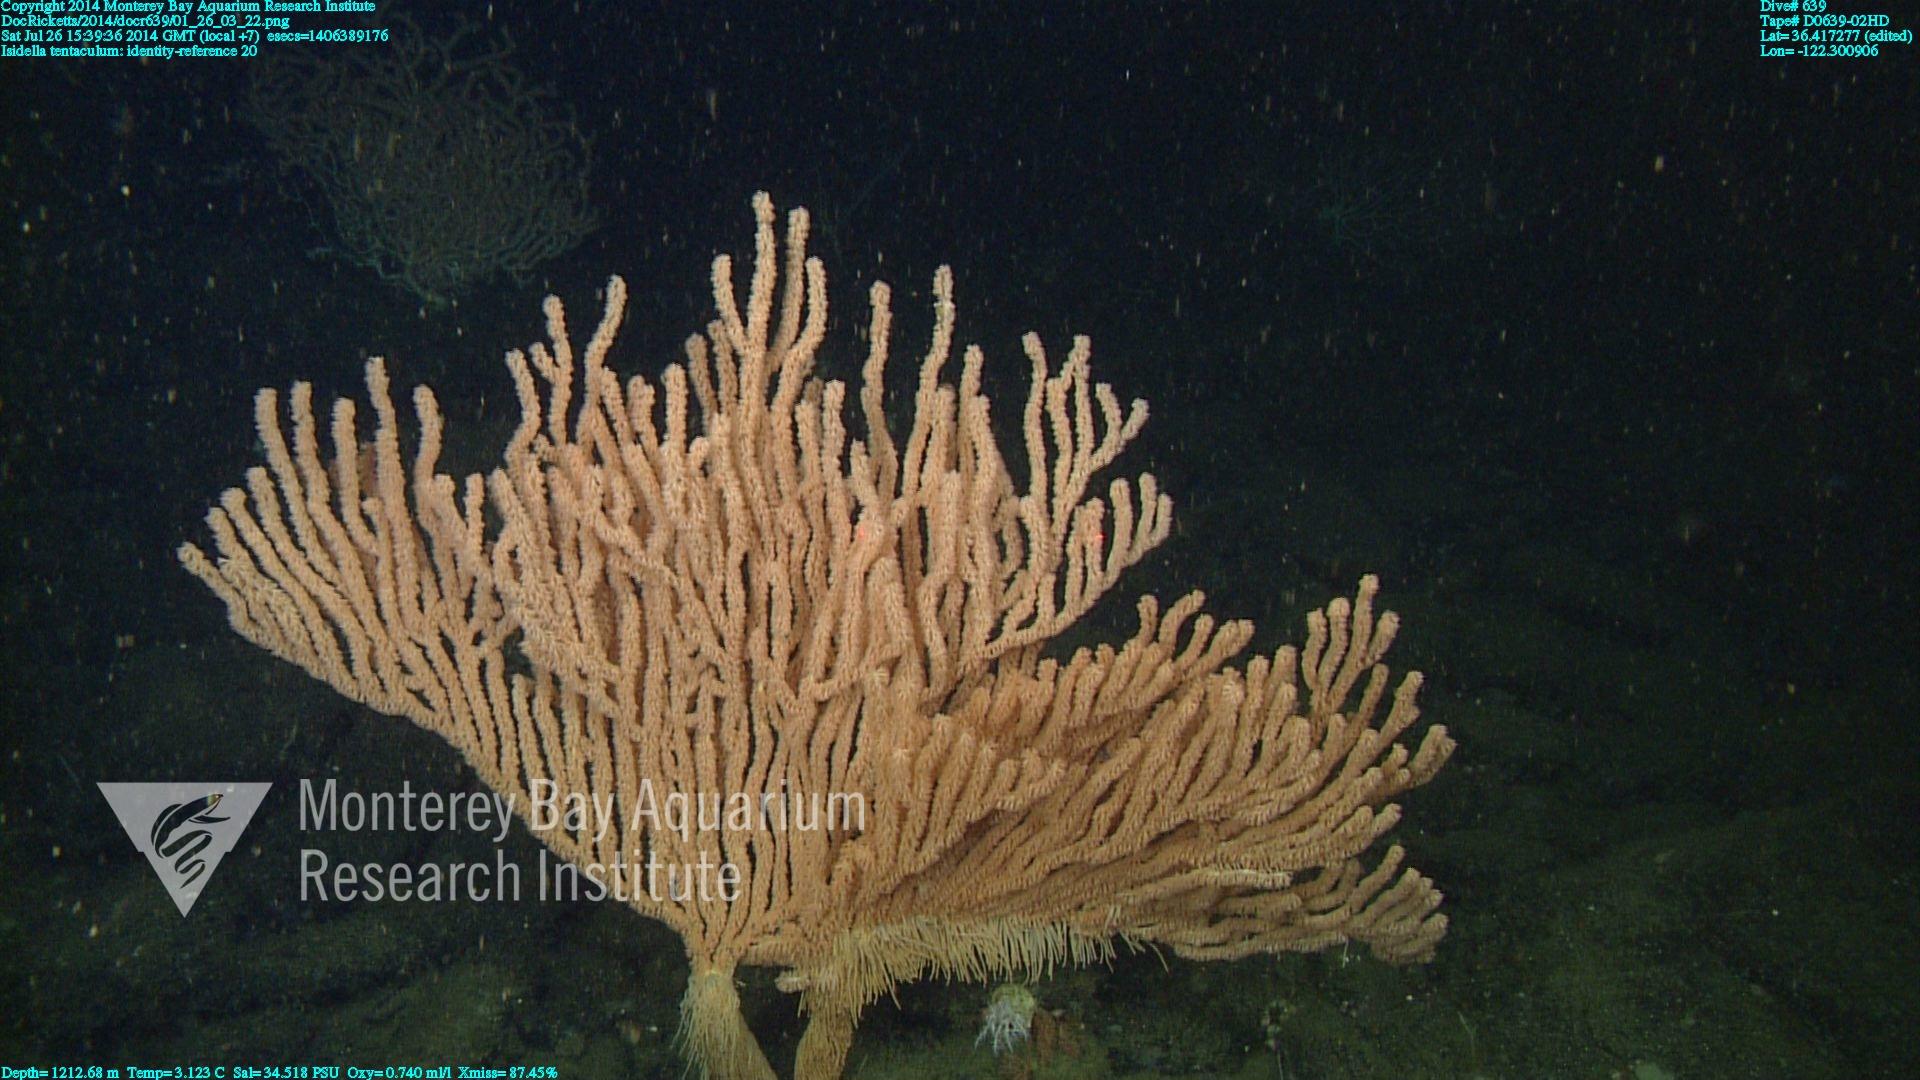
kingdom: Animalia
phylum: Cnidaria
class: Anthozoa
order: Scleralcyonacea
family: Keratoisididae
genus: Isidella
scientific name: Isidella tentaculum
